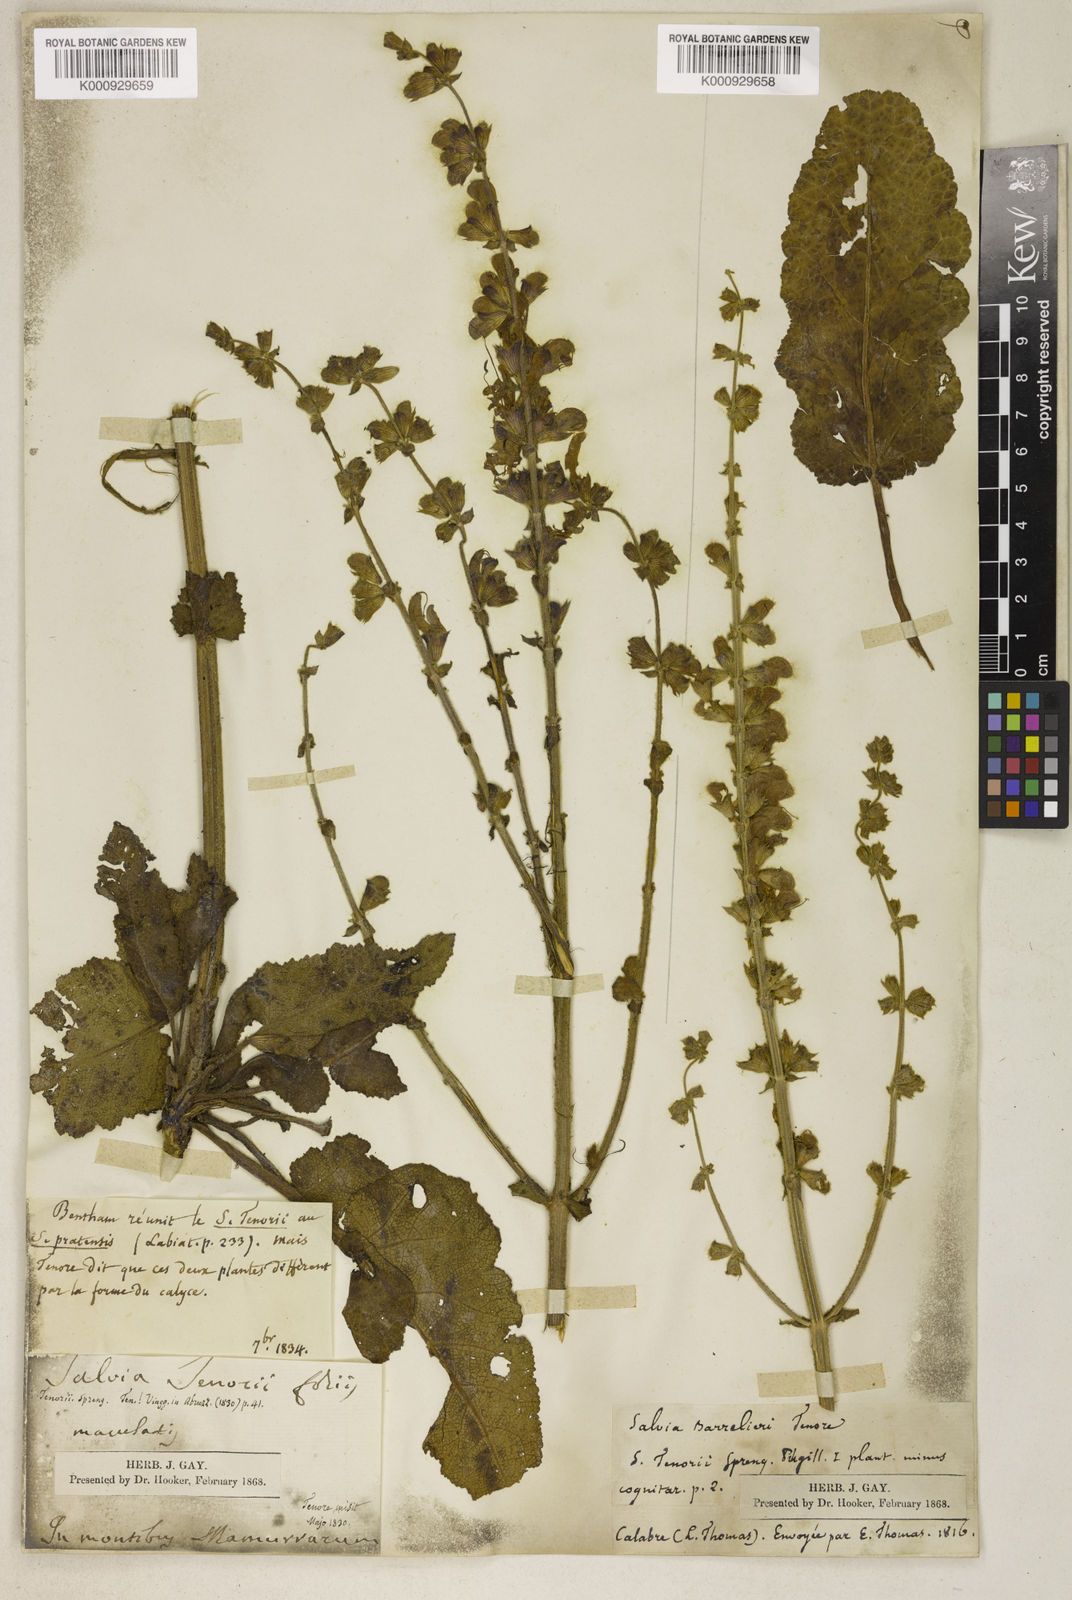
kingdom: Plantae
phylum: Tracheophyta
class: Magnoliopsida
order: Lamiales
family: Lamiaceae
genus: Salvia
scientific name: Salvia pratensis
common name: Meadow sage
